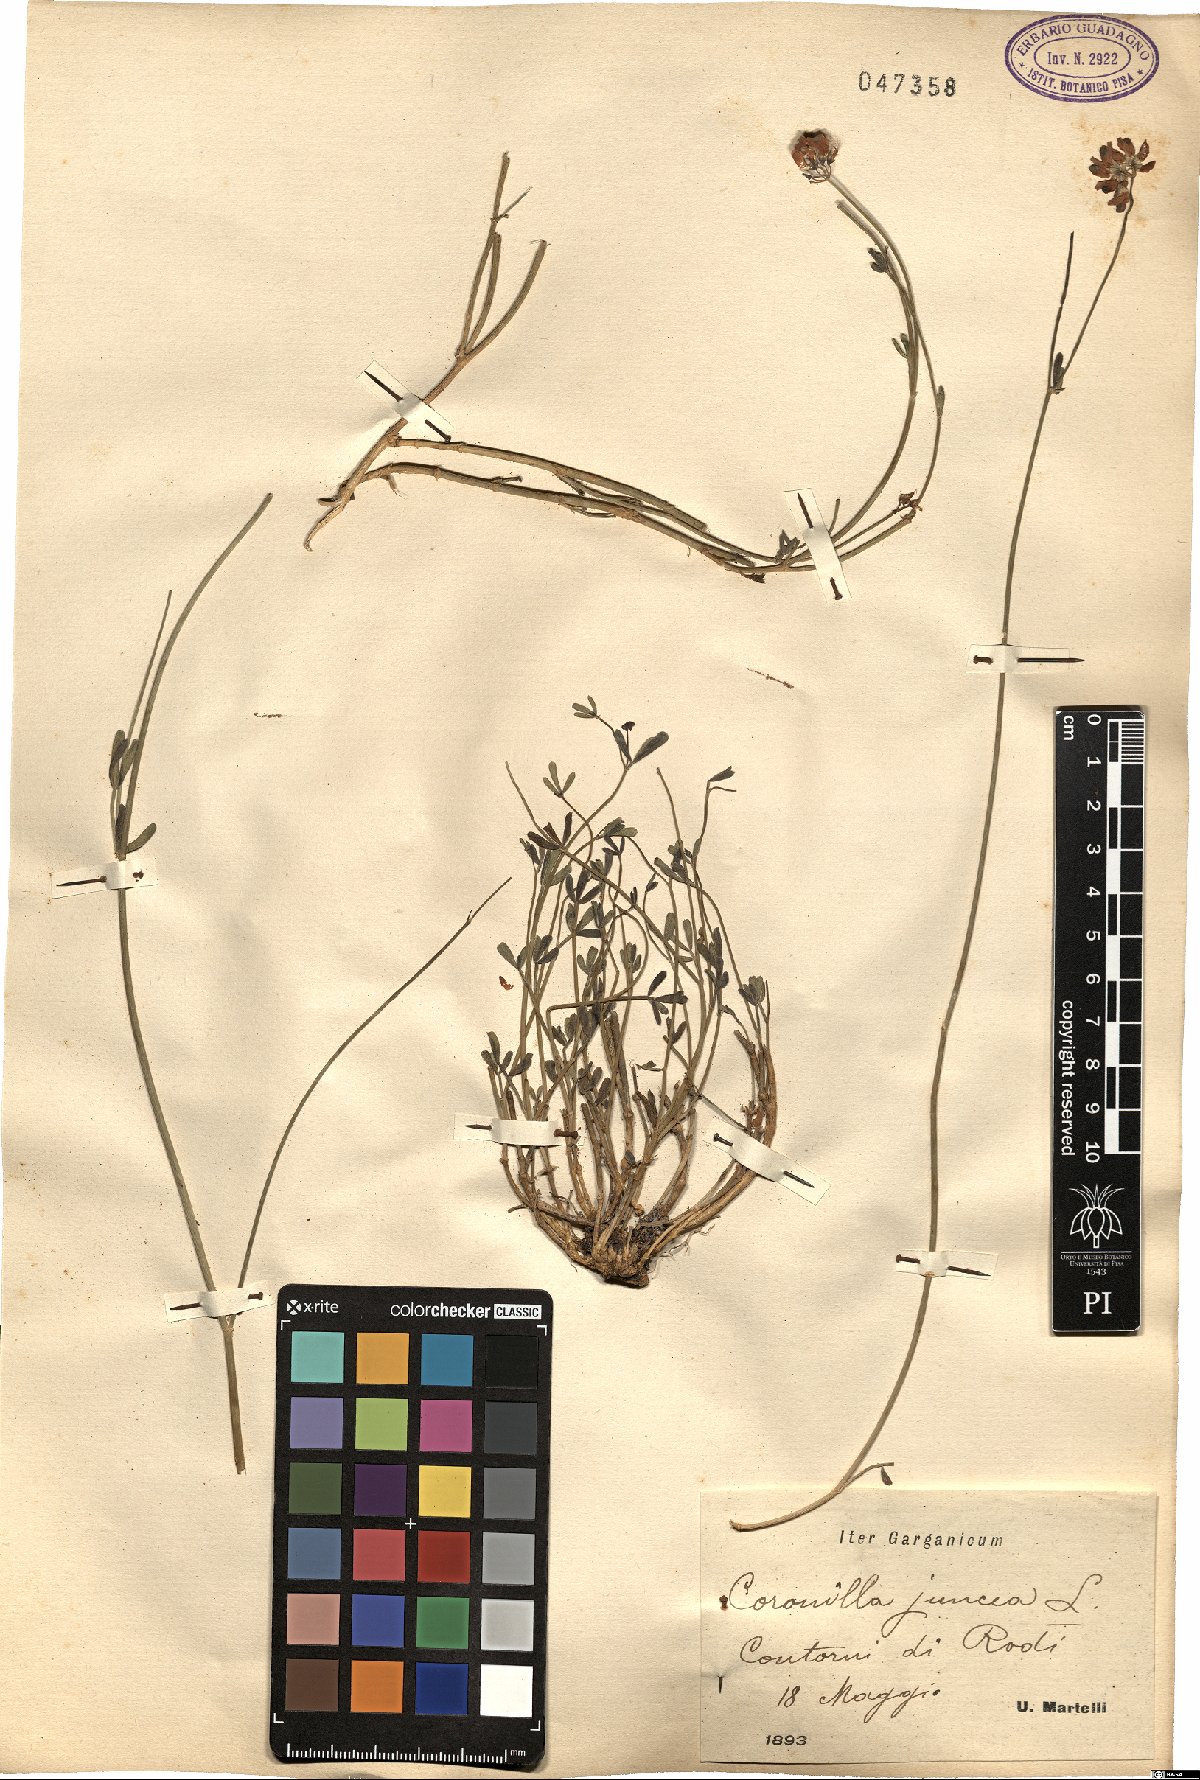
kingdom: Plantae
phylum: Tracheophyta
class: Magnoliopsida
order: Fabales
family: Fabaceae
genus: Coronilla
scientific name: Coronilla juncea
